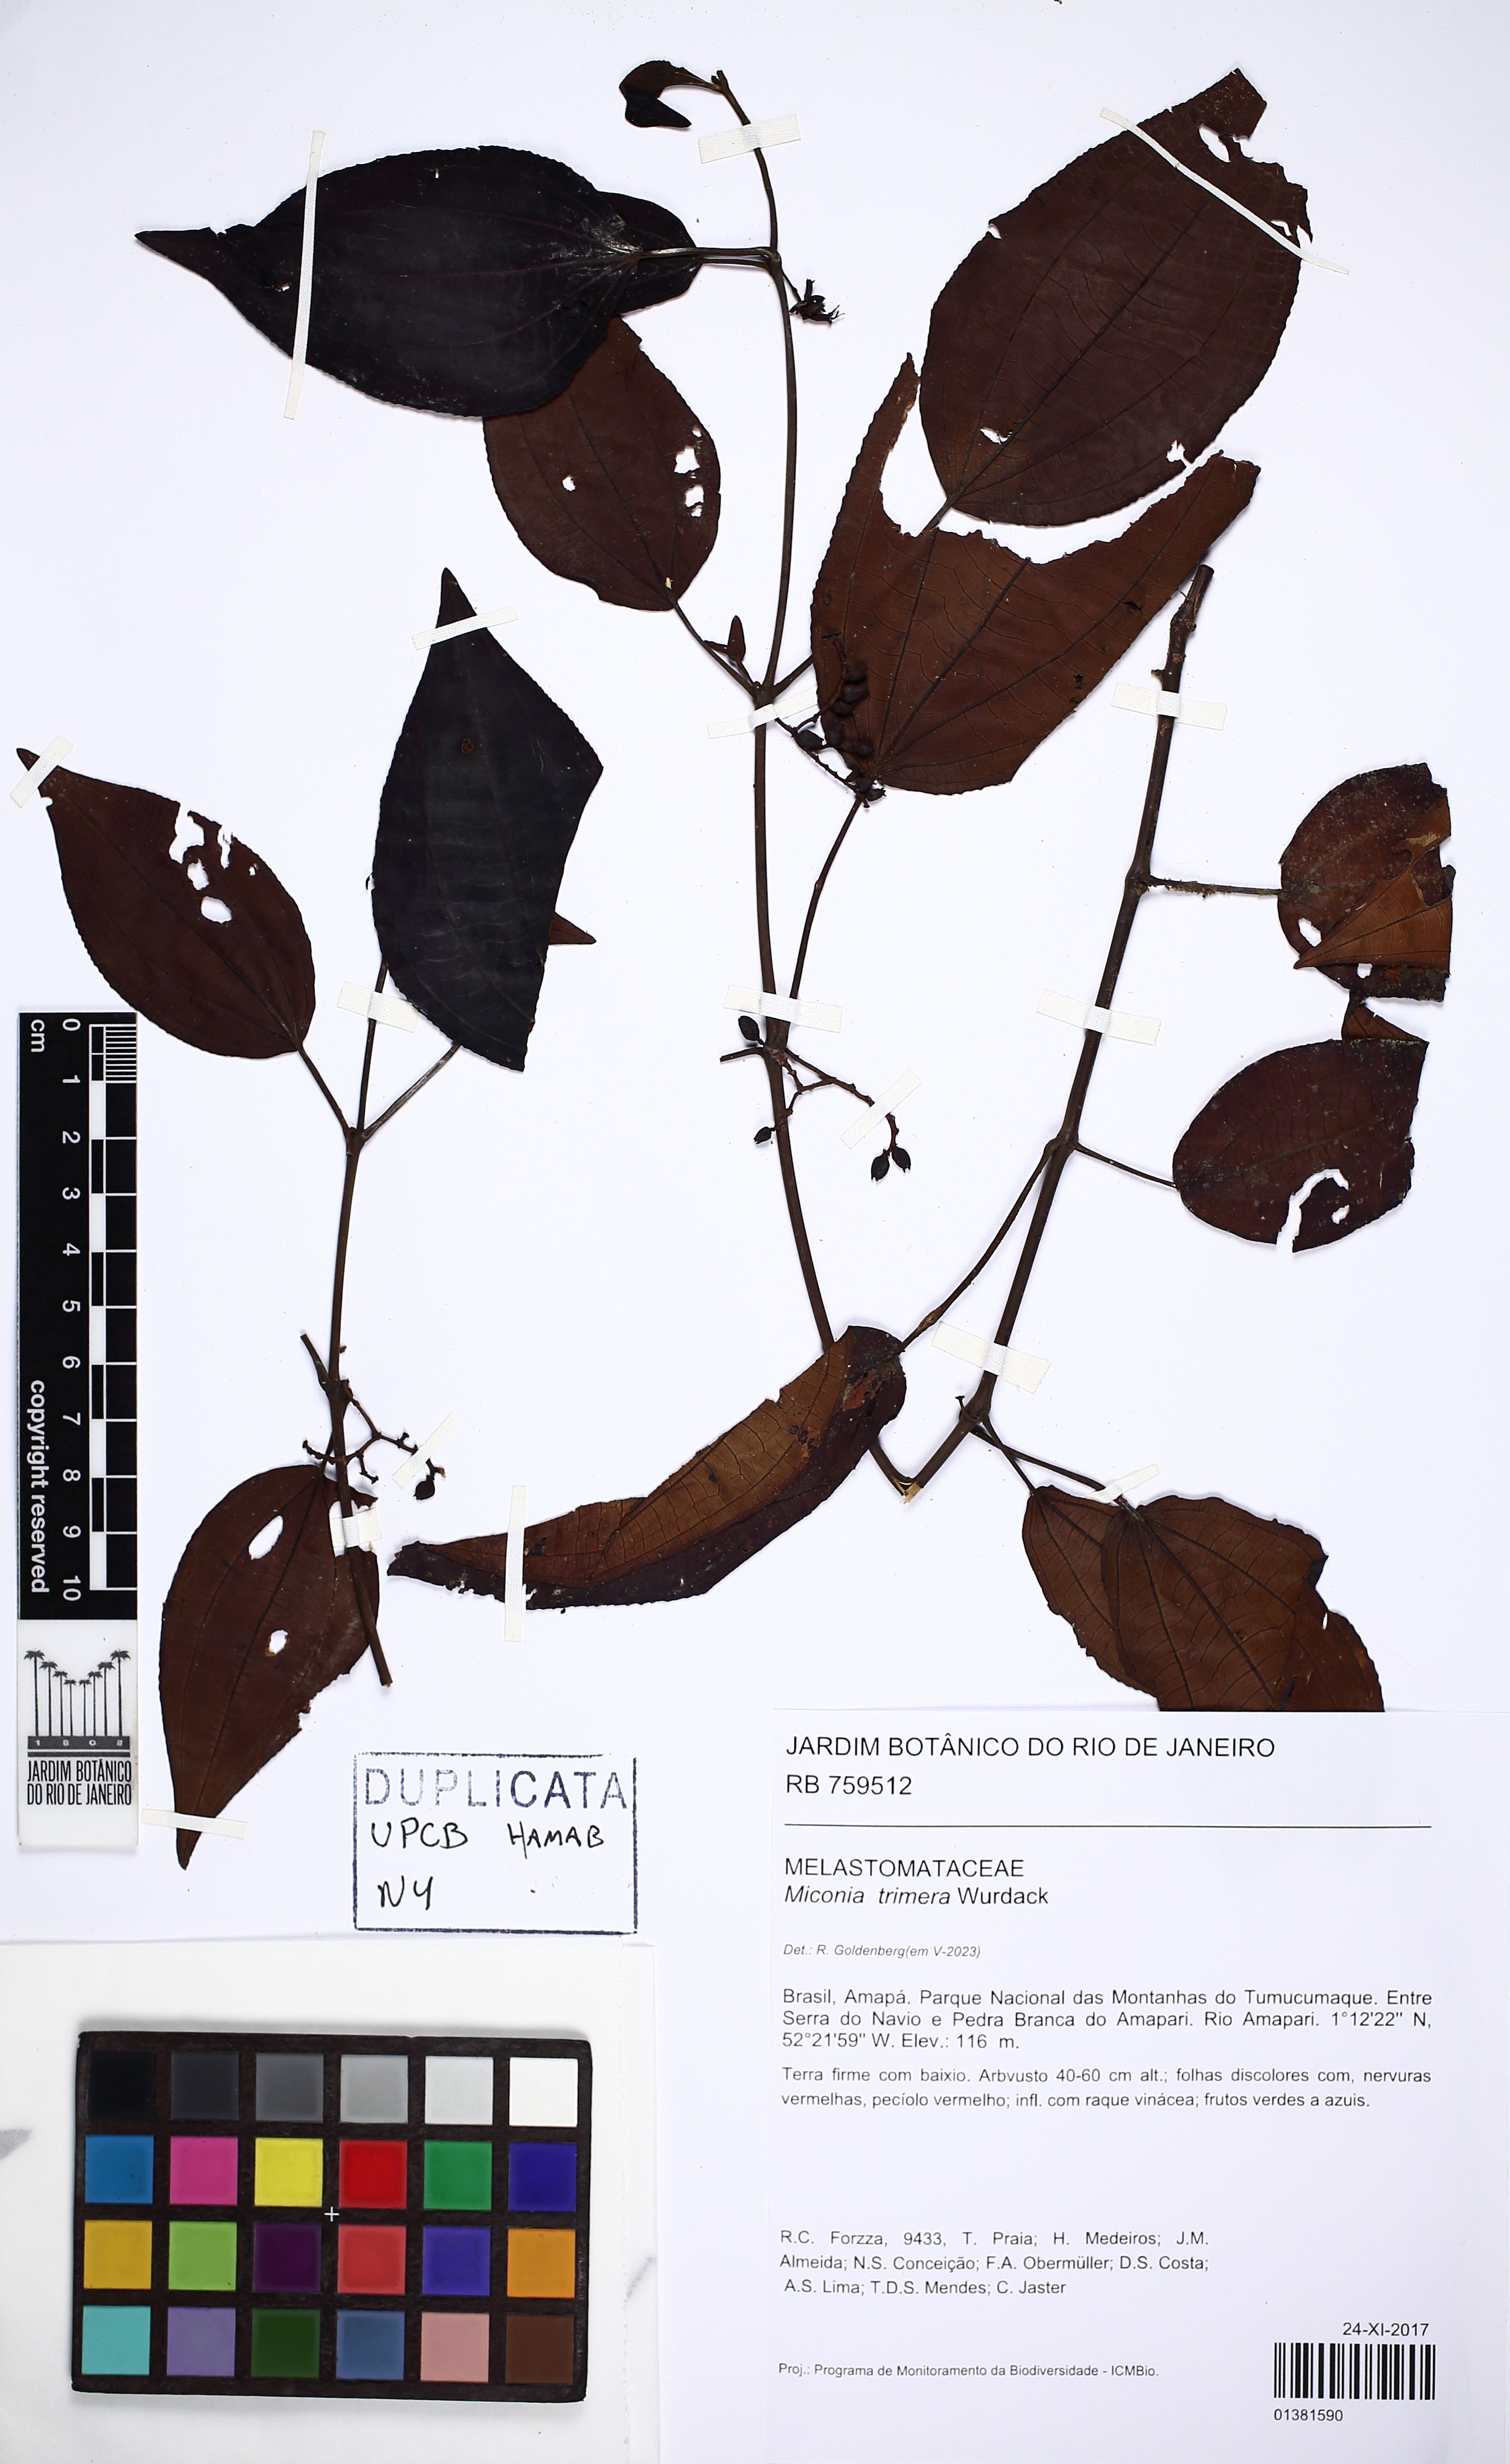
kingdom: Plantae
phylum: Tracheophyta
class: Magnoliopsida
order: Myrtales
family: Melastomataceae
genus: Miconia
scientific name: Miconia trimera
